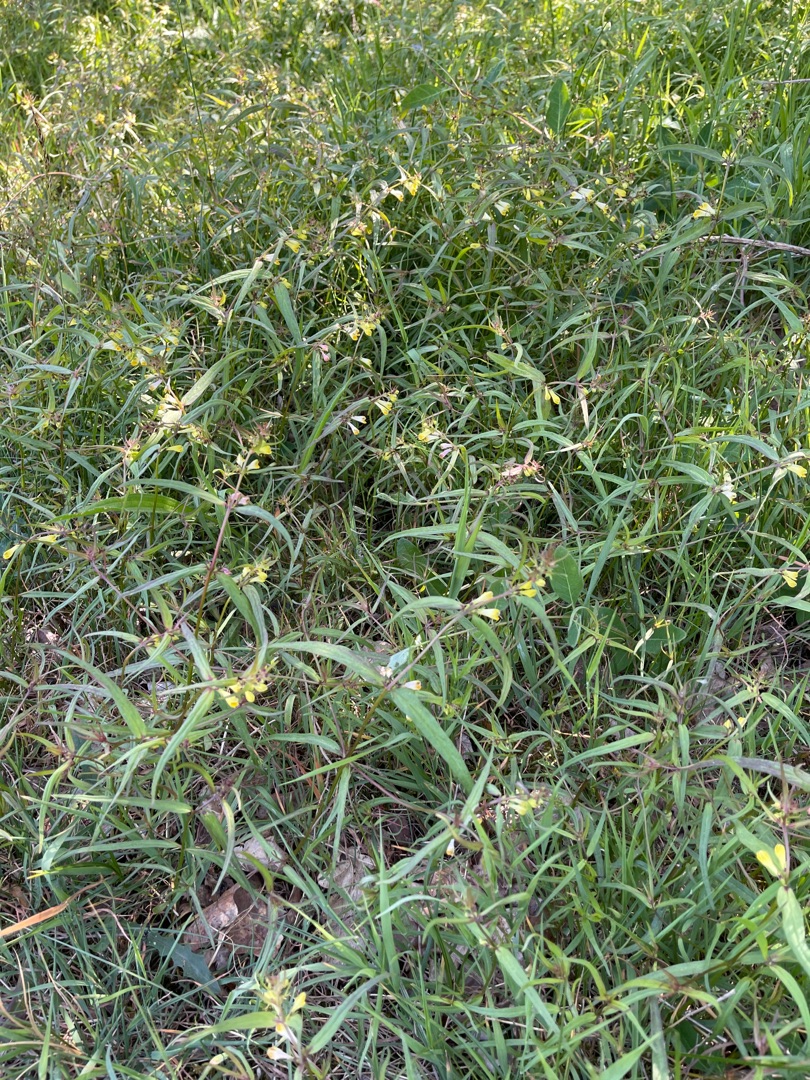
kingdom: Plantae
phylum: Tracheophyta
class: Magnoliopsida
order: Lamiales
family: Orobanchaceae
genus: Melampyrum
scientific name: Melampyrum pratense
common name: Almindelig kohvede
